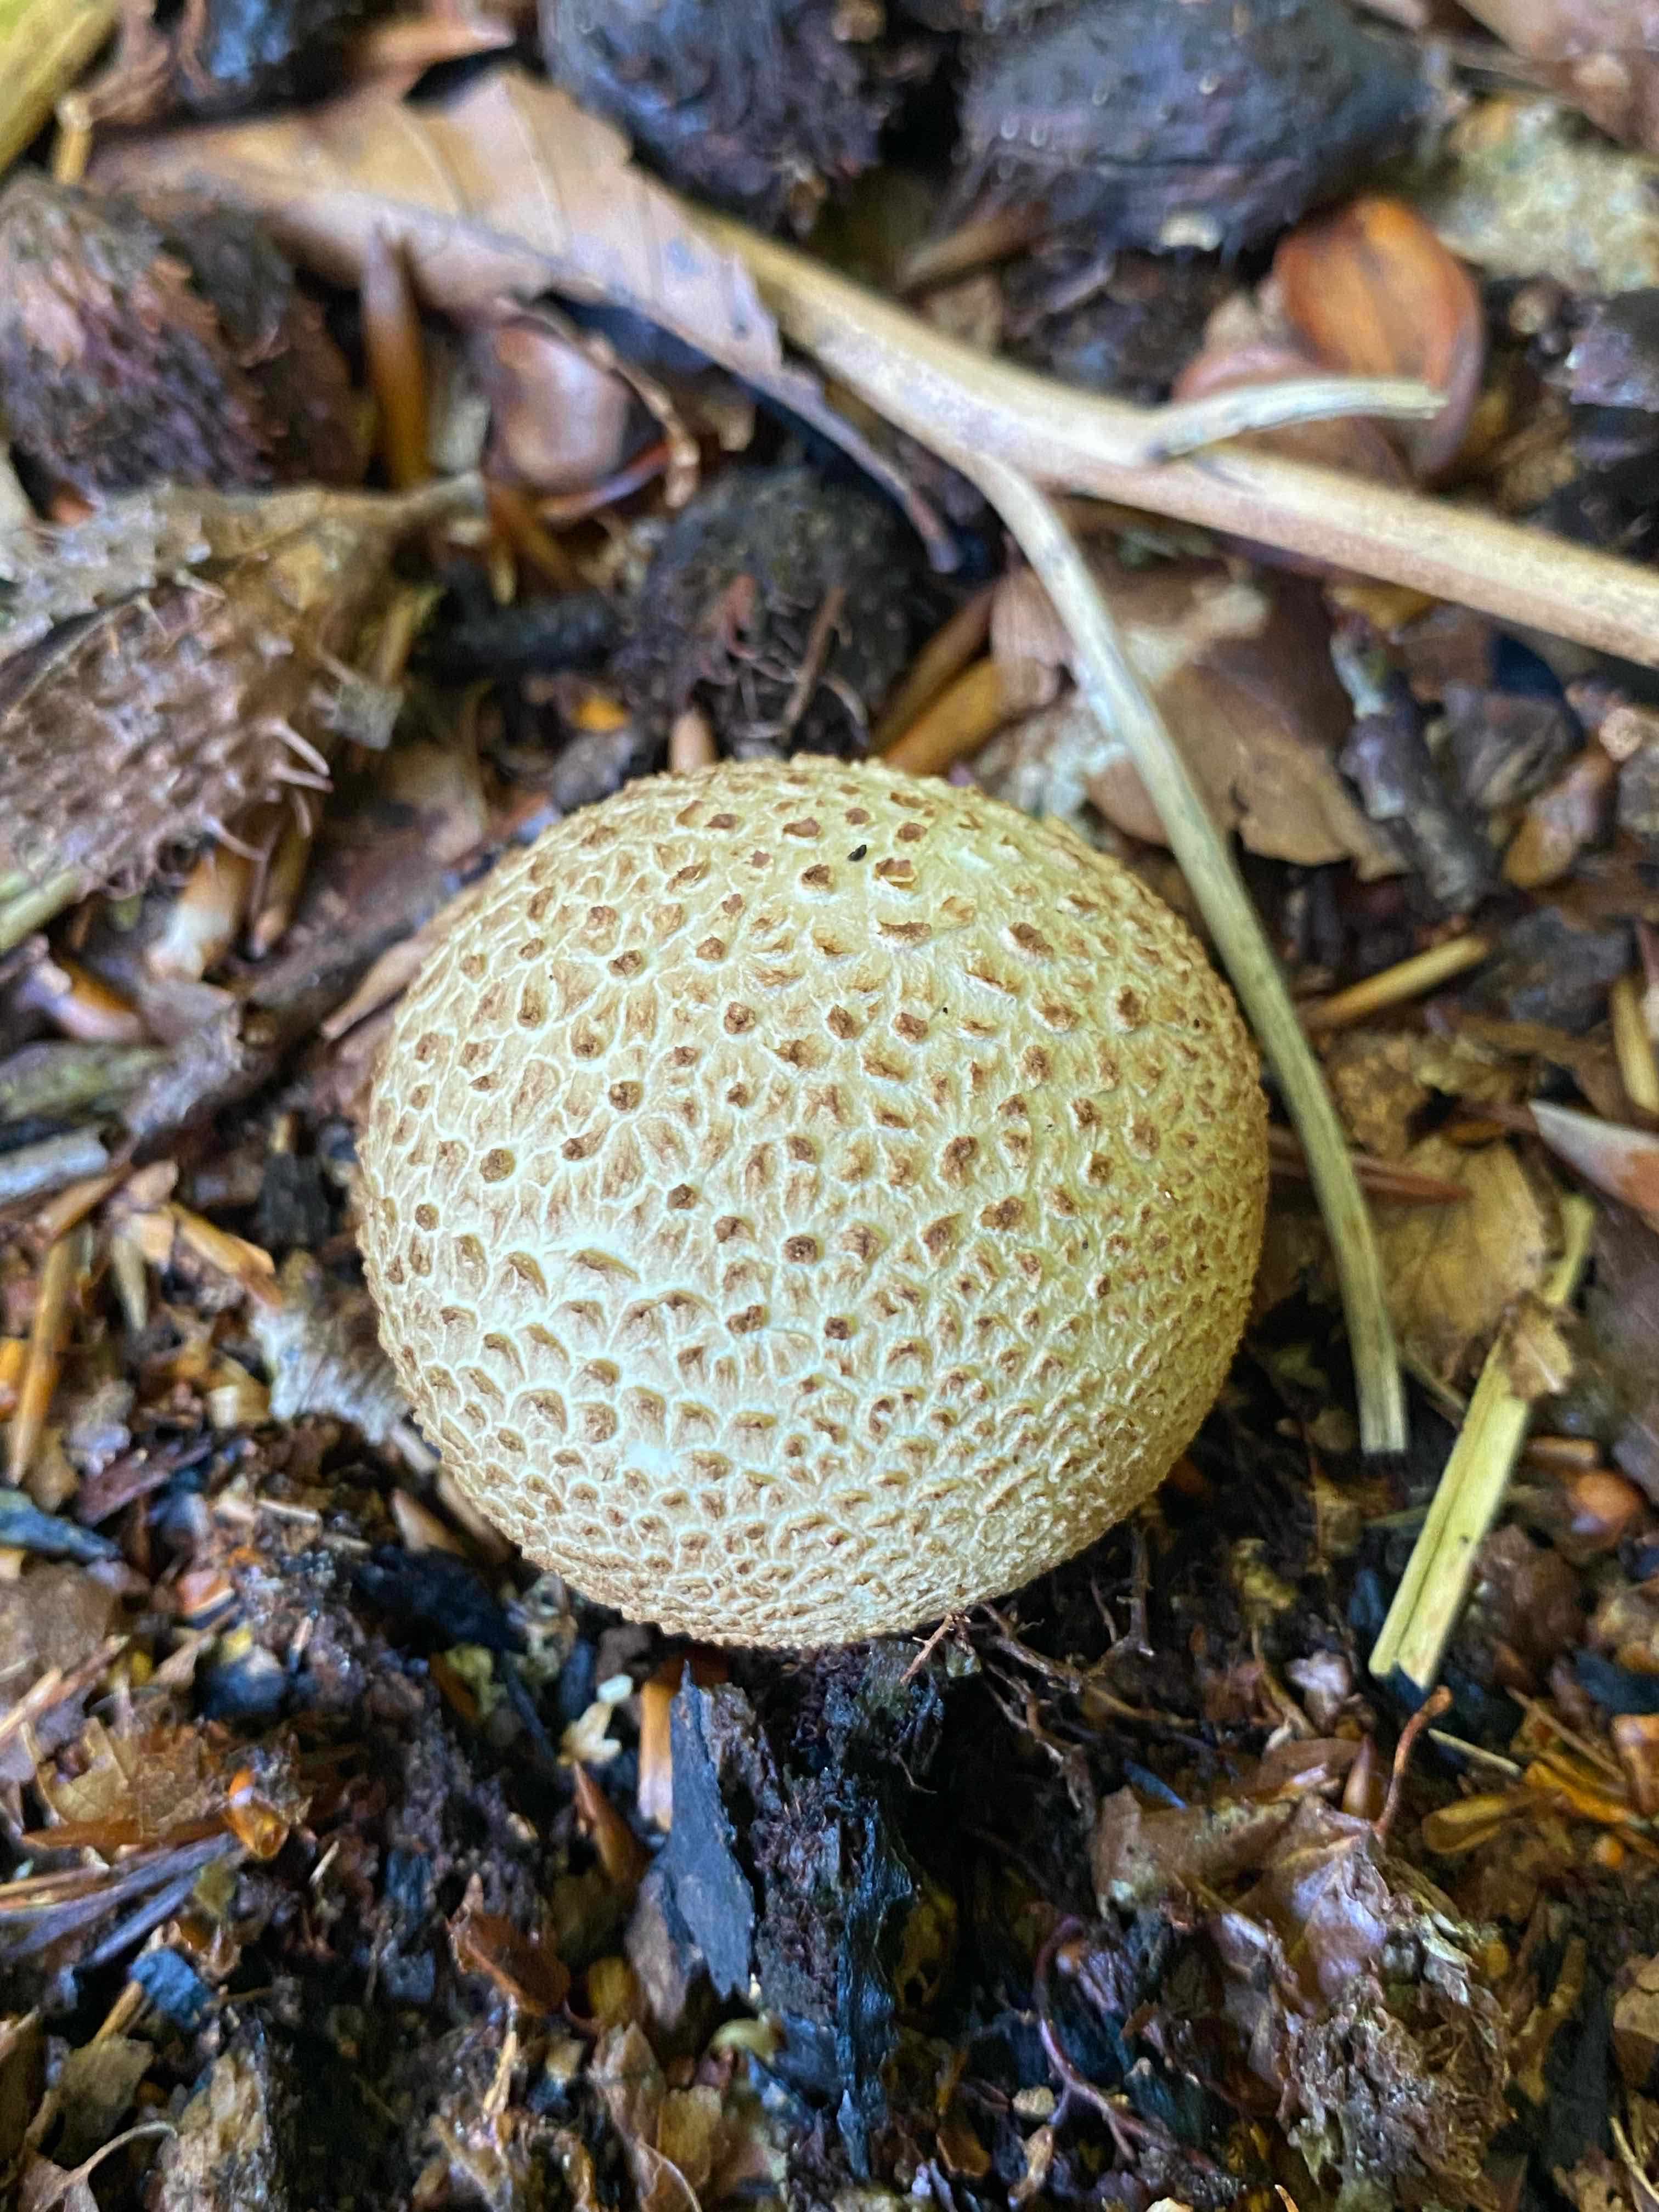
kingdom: Fungi
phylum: Basidiomycota
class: Agaricomycetes
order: Boletales
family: Sclerodermataceae
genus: Scleroderma
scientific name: Scleroderma citrinum
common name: almindelig bruskbold
